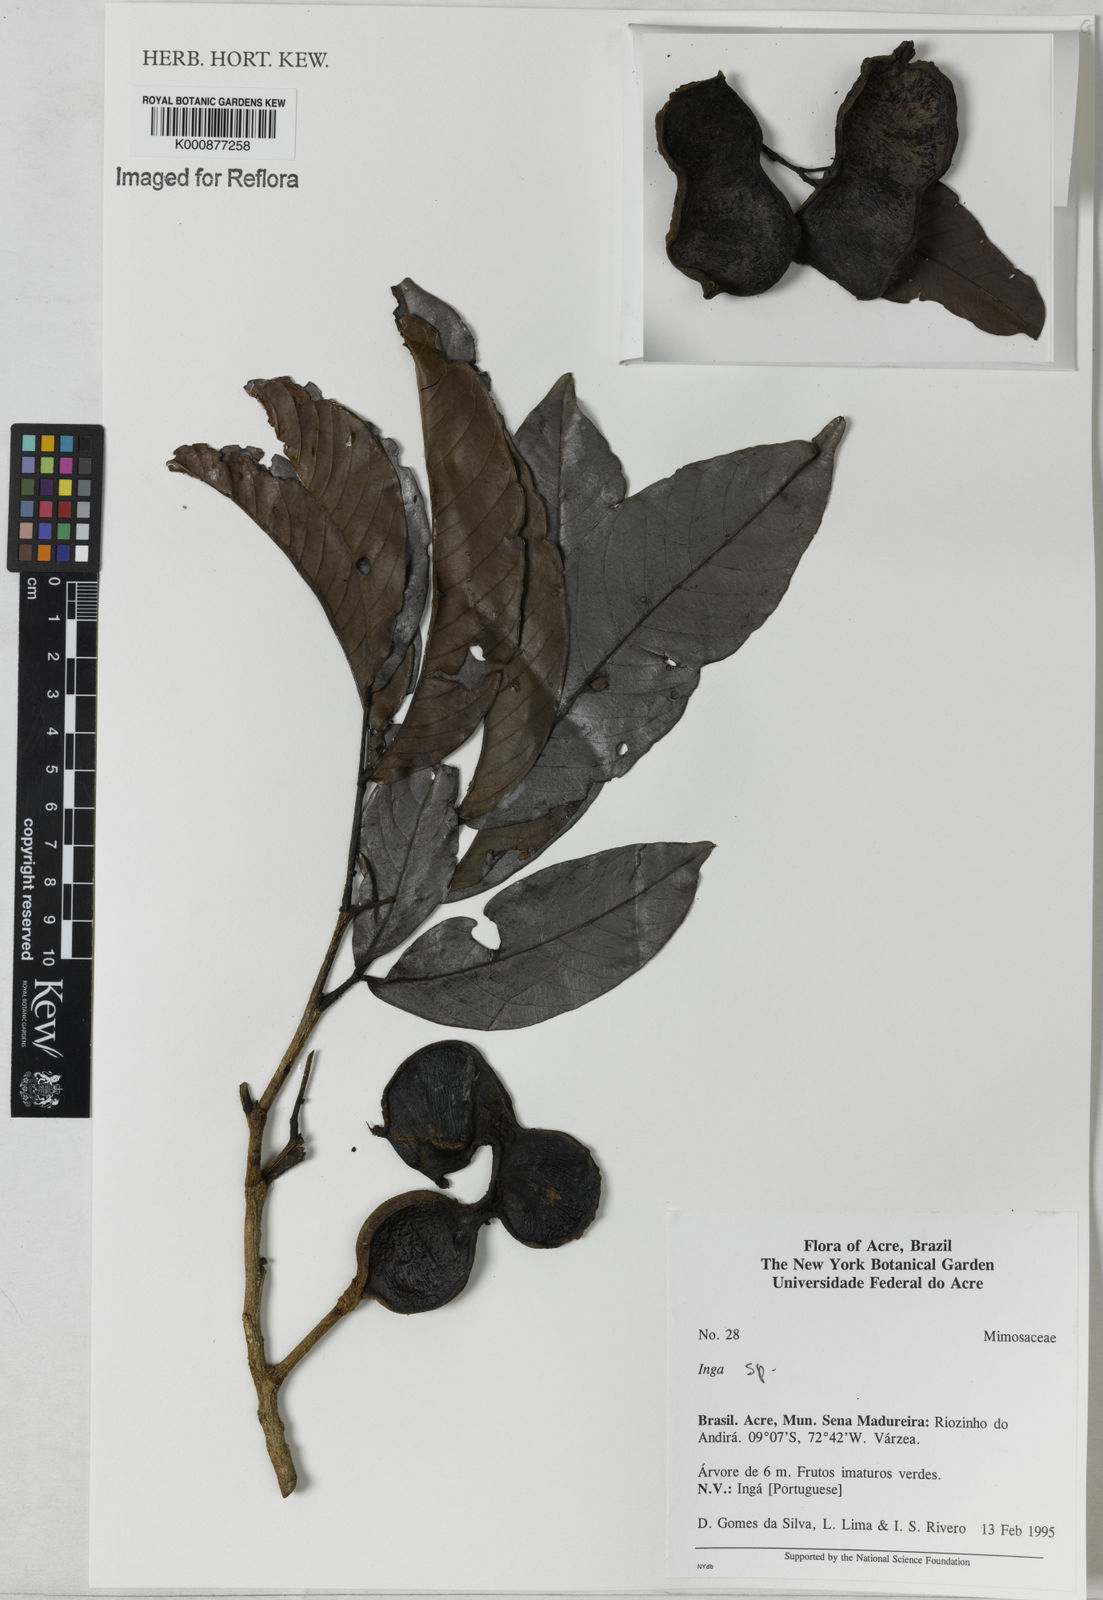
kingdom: Plantae
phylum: Tracheophyta
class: Magnoliopsida
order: Fabales
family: Fabaceae
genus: Inga
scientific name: Inga
